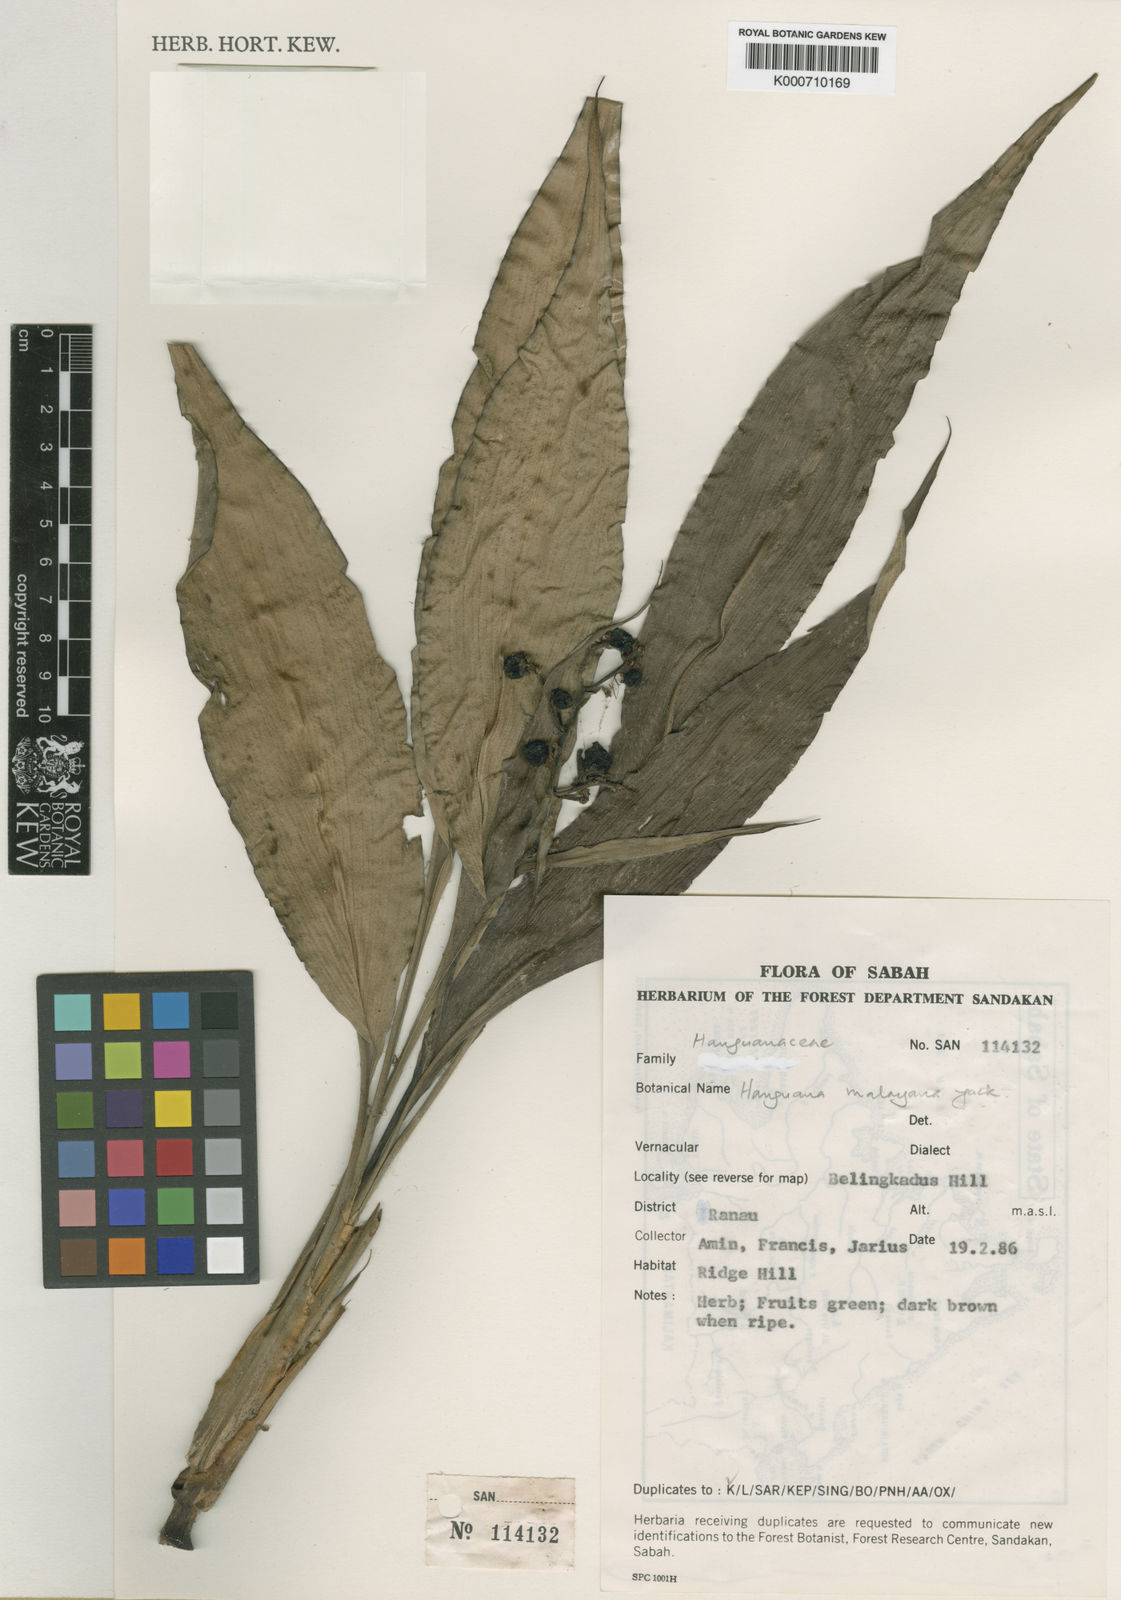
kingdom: Plantae
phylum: Tracheophyta
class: Liliopsida
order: Commelinales
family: Hanguanaceae
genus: Hanguana
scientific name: Hanguana malayana
